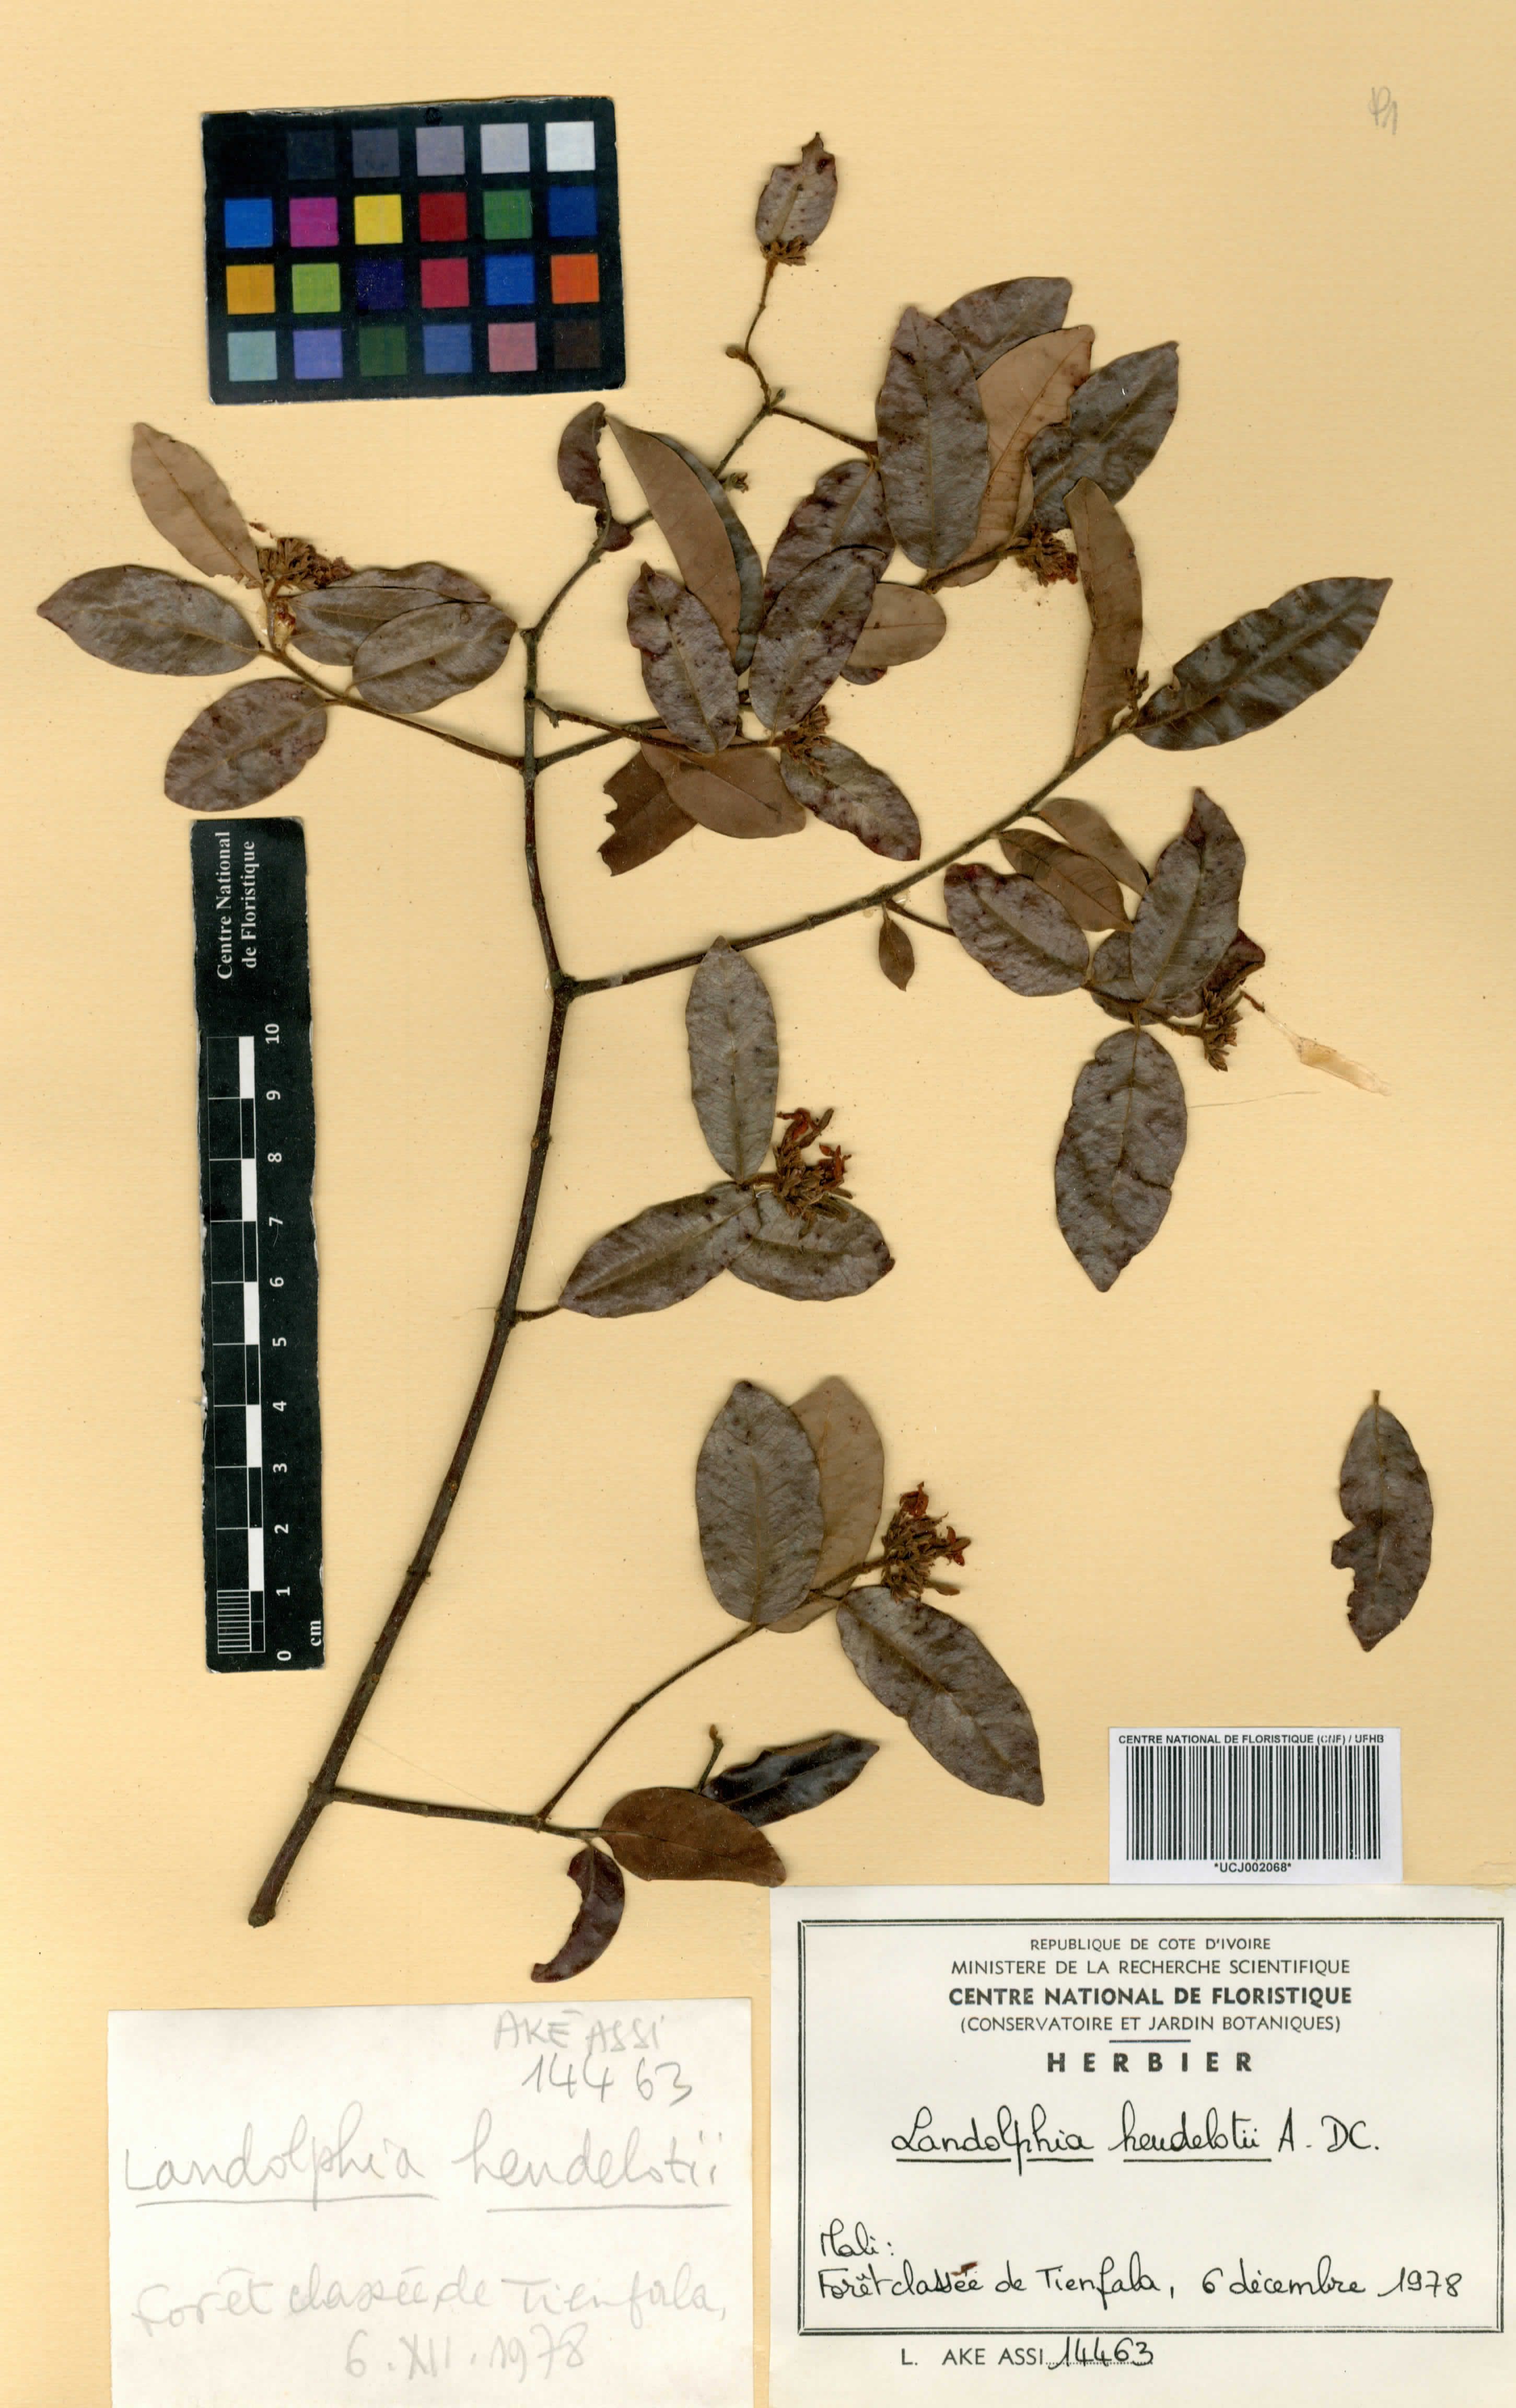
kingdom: Plantae
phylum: Tracheophyta
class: Magnoliopsida
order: Gentianales
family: Apocynaceae
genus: Landolphia
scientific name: Landolphia heudelotii
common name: Landolphia-rubber
